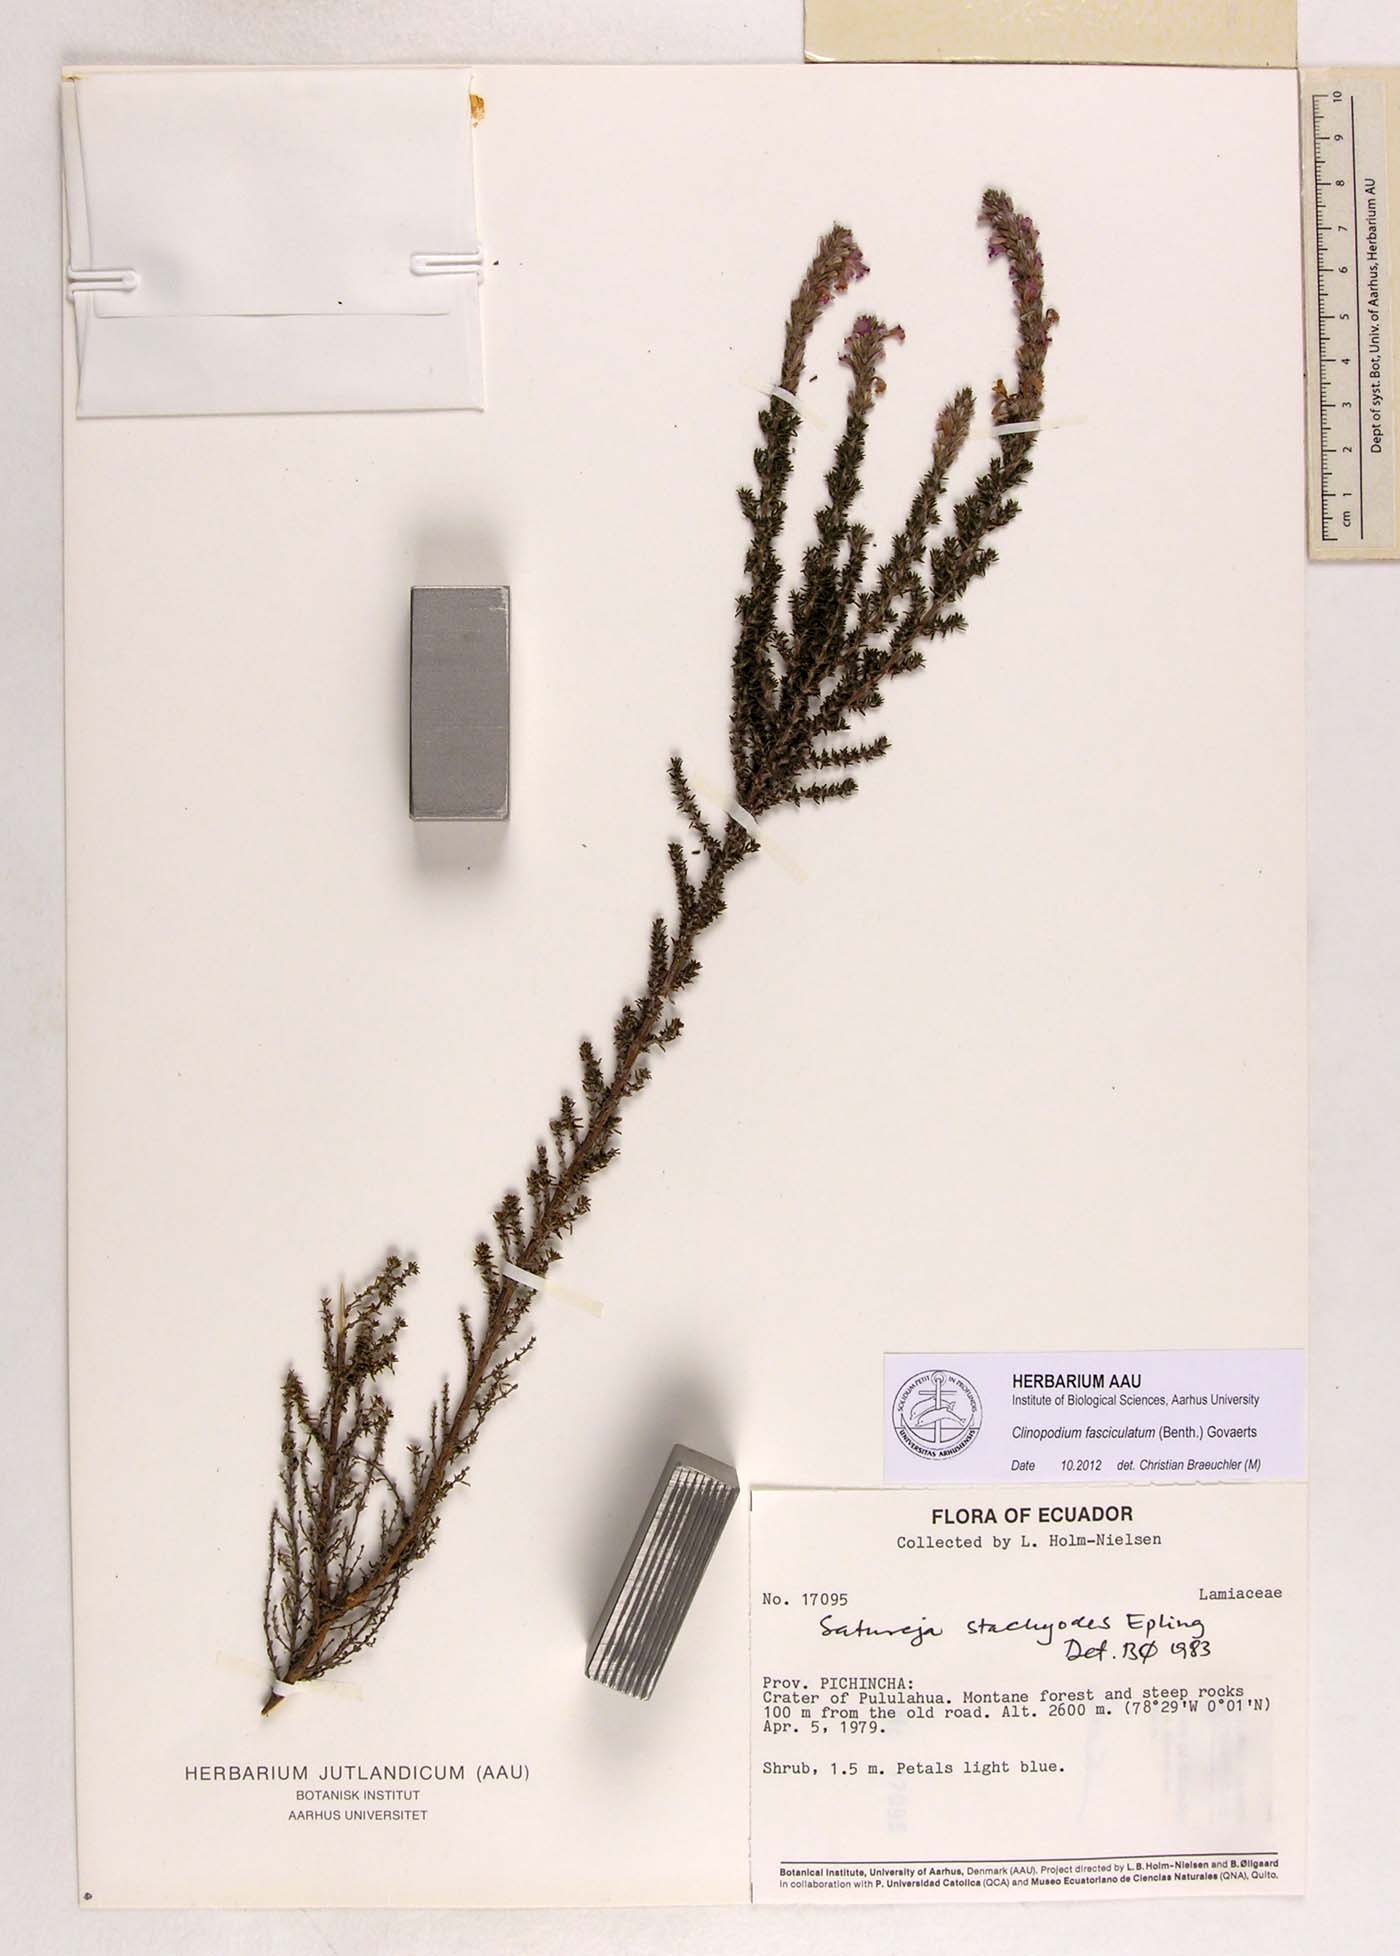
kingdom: Plantae
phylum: Tracheophyta
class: Magnoliopsida
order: Lamiales
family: Lamiaceae
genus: Clinopodium
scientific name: Clinopodium fasciculatum
